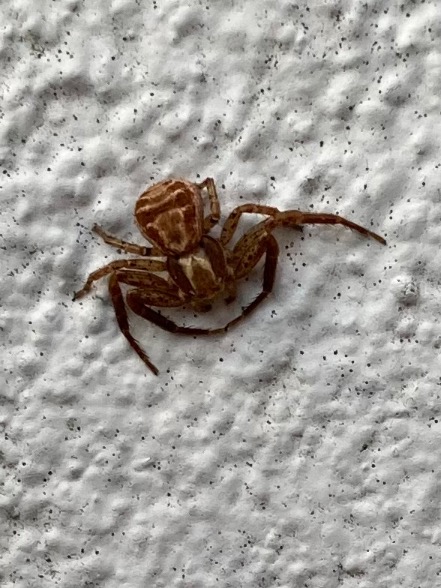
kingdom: Animalia
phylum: Arthropoda
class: Arachnida
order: Araneae
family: Thomisidae
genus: Xysticus
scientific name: Xysticus
